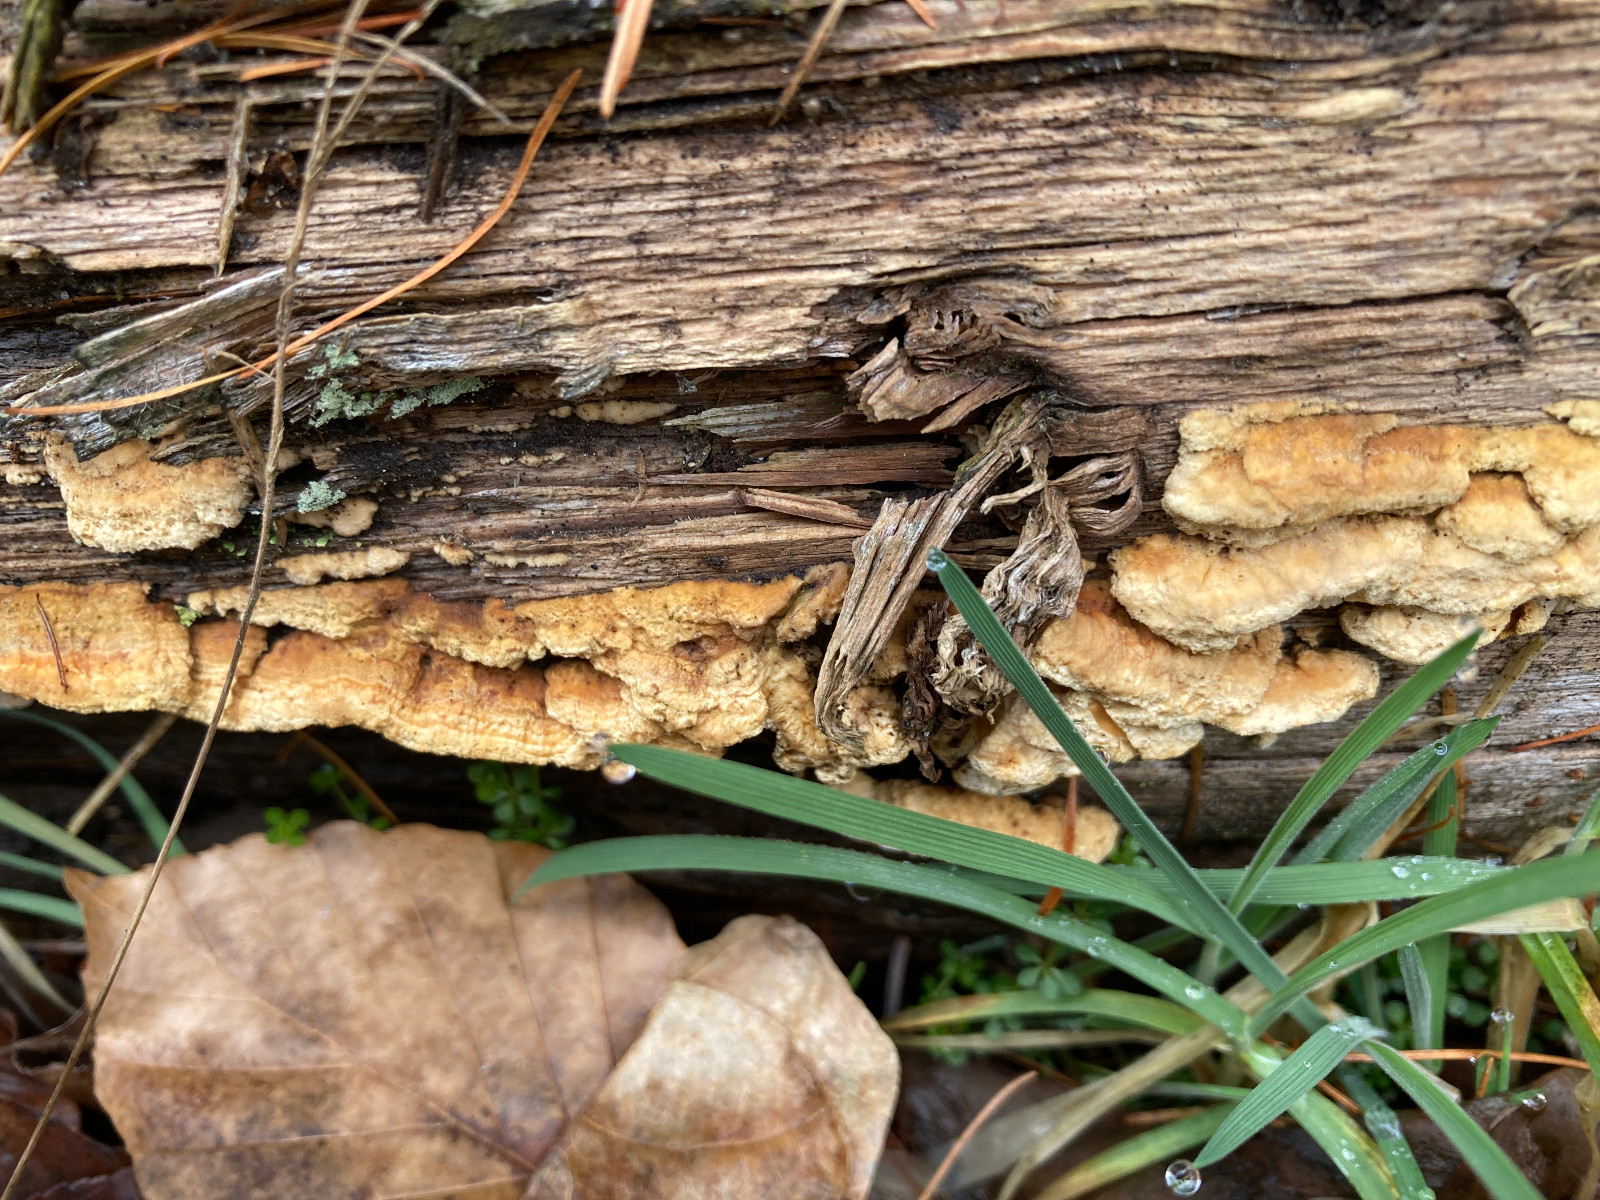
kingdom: Fungi
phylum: Basidiomycota
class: Agaricomycetes
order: Polyporales
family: Fomitopsidaceae
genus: Neoantrodia
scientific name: Neoantrodia serialis
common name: række-sejporesvamp
